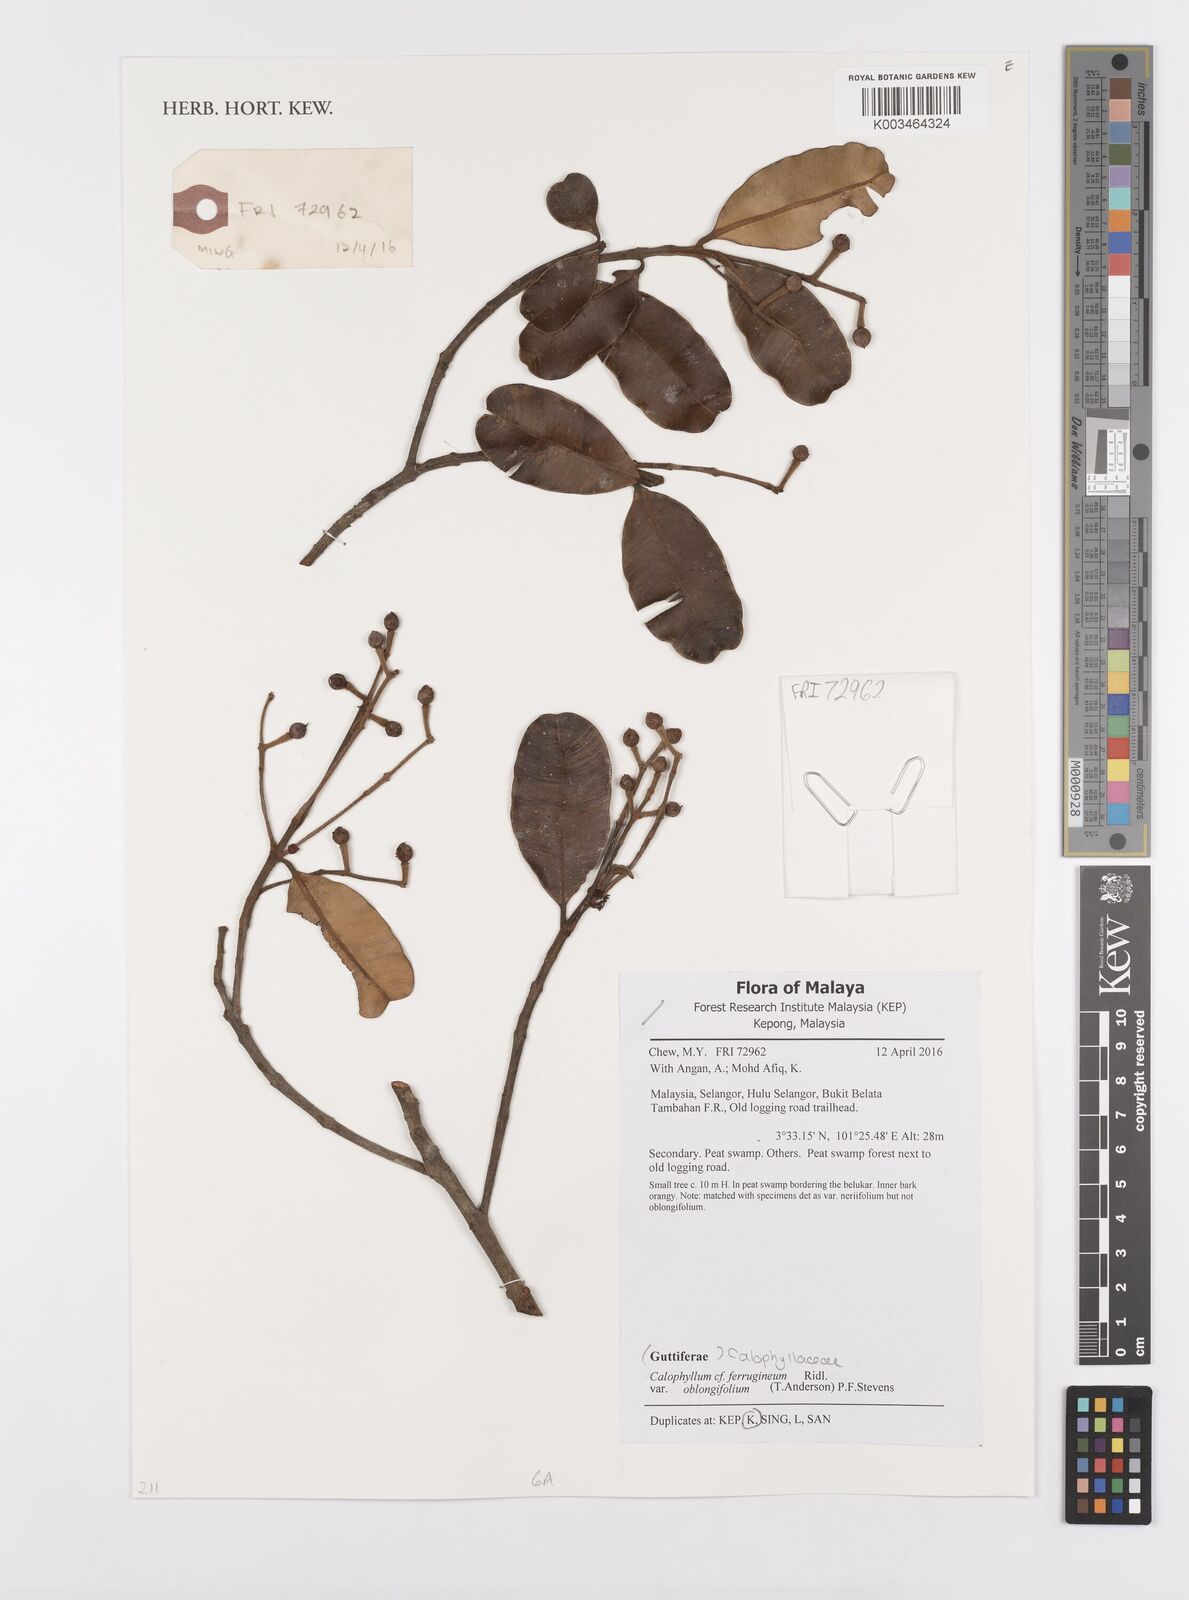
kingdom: Plantae
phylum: Tracheophyta
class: Magnoliopsida
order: Malpighiales
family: Calophyllaceae
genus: Calophyllum
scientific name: Calophyllum ferrugineum
